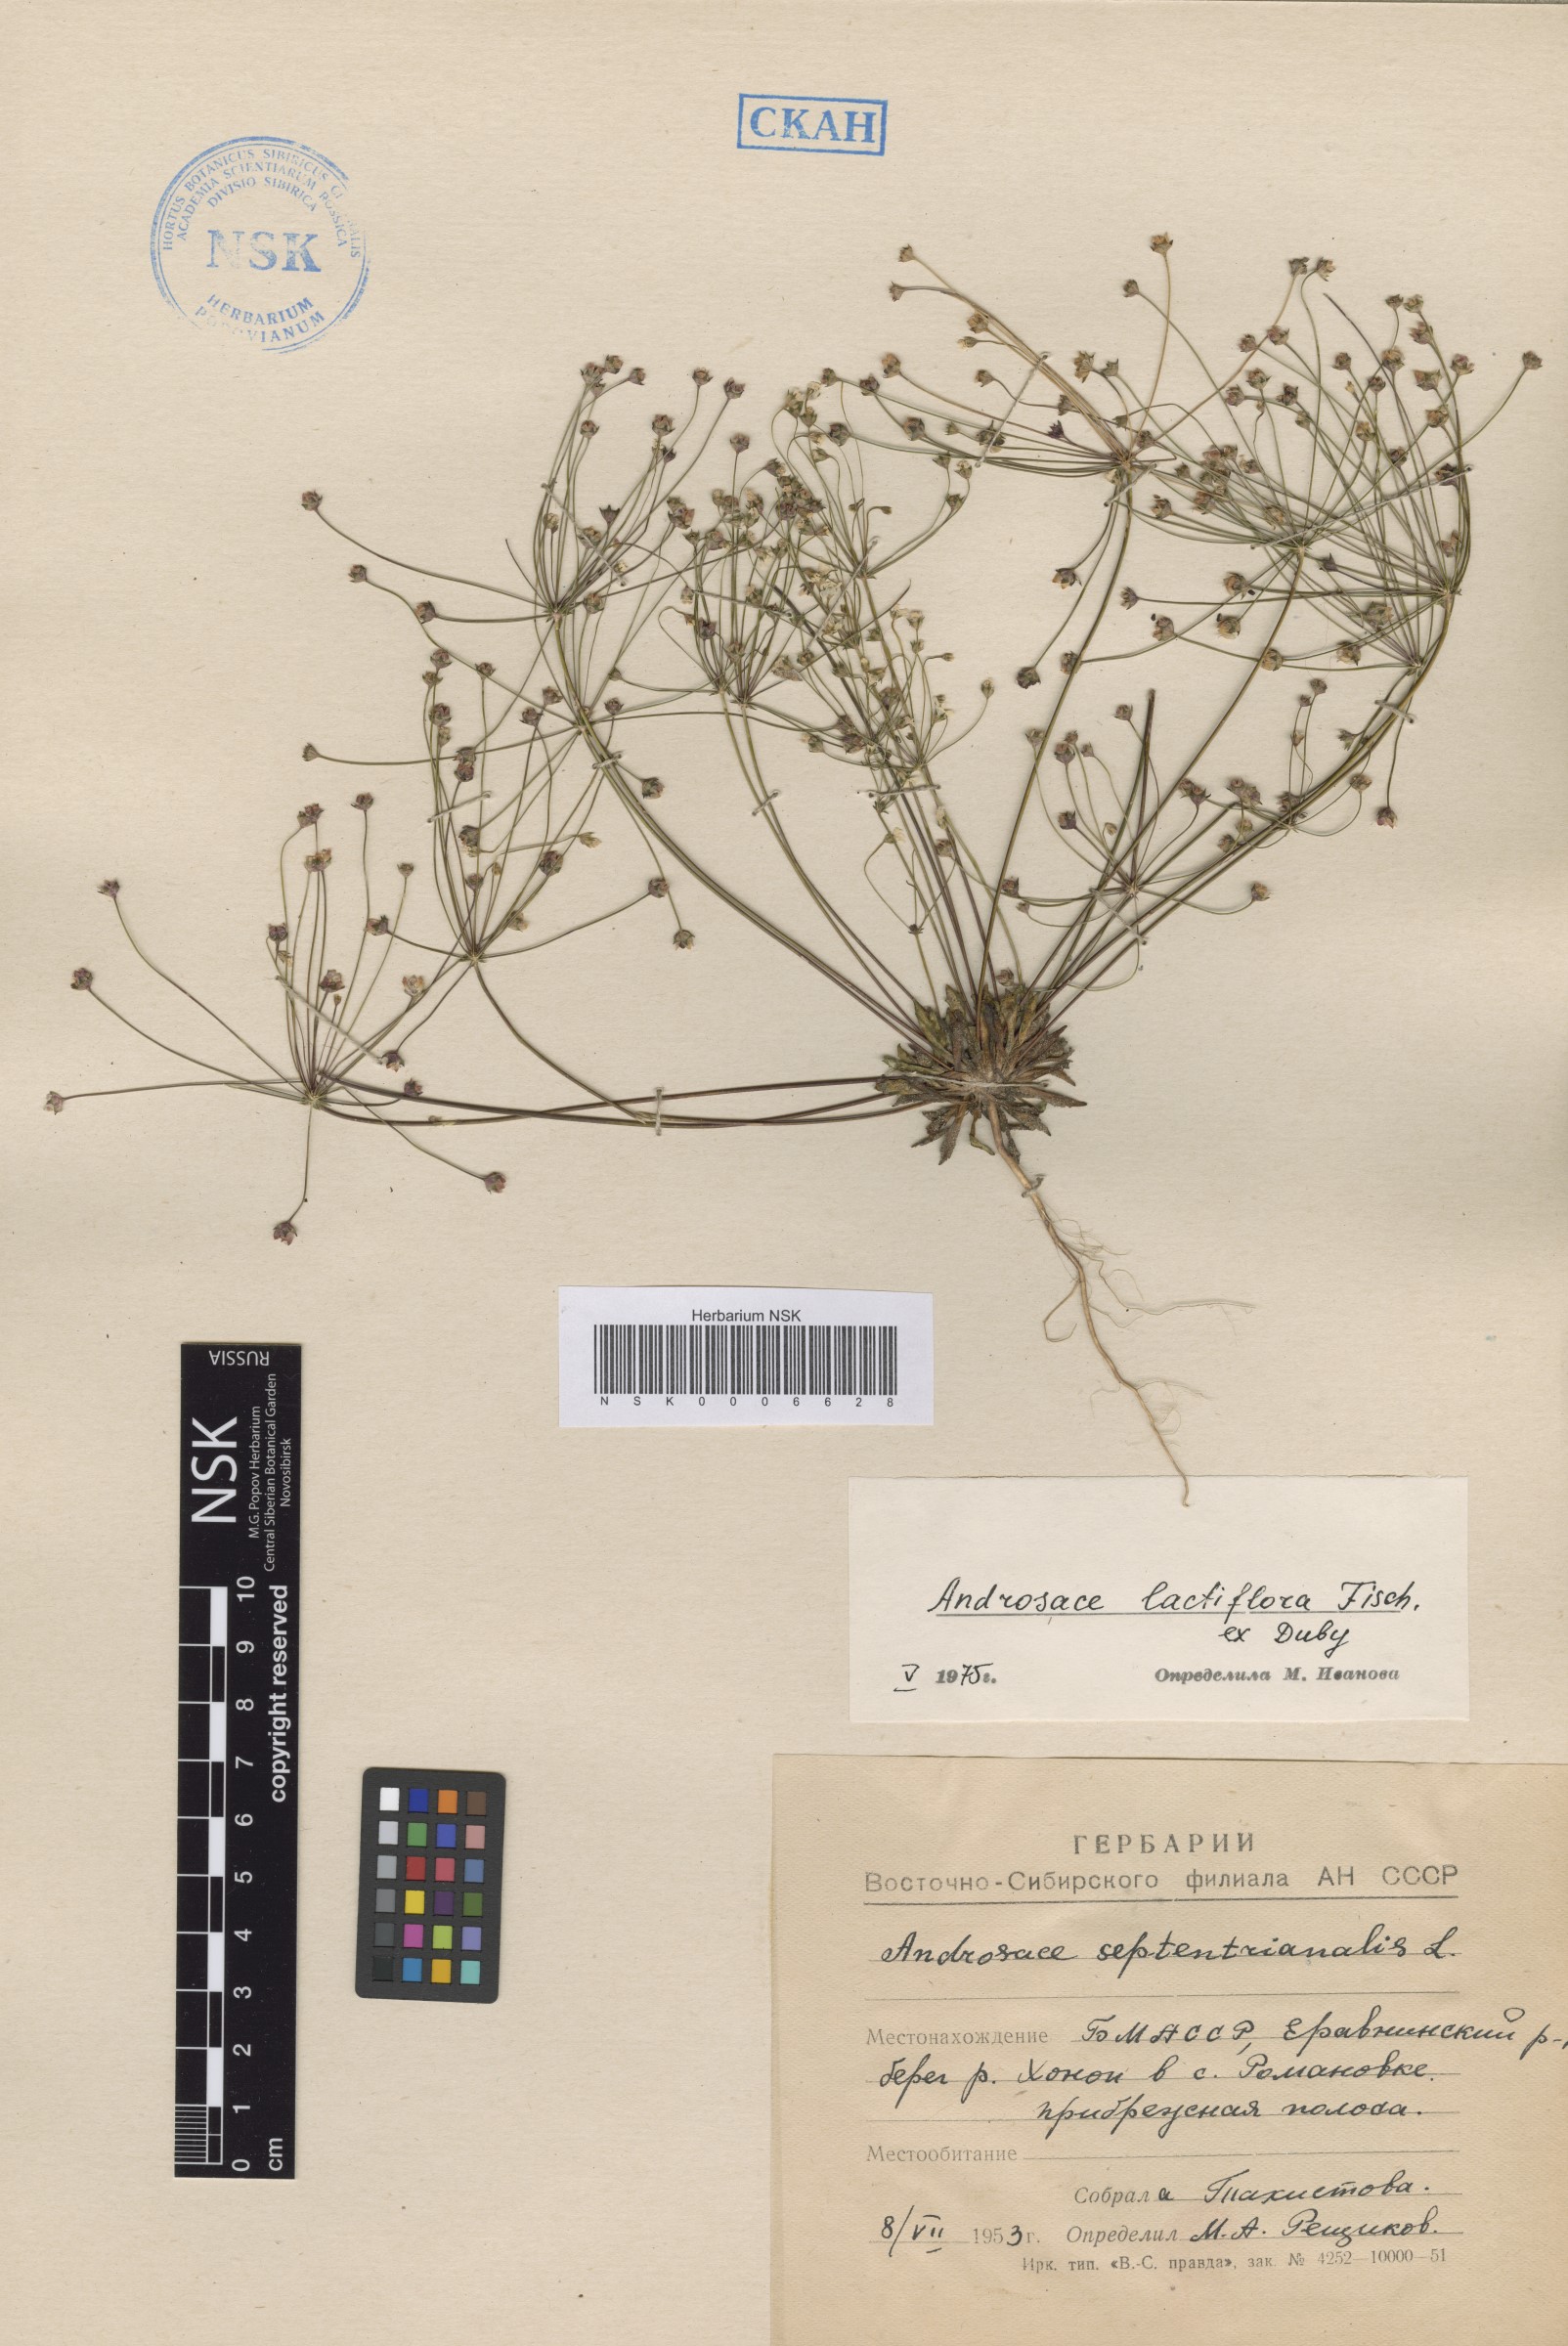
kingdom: Plantae
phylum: Tracheophyta
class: Magnoliopsida
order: Ericales
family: Primulaceae
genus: Androsace
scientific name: Androsace lactiflora
